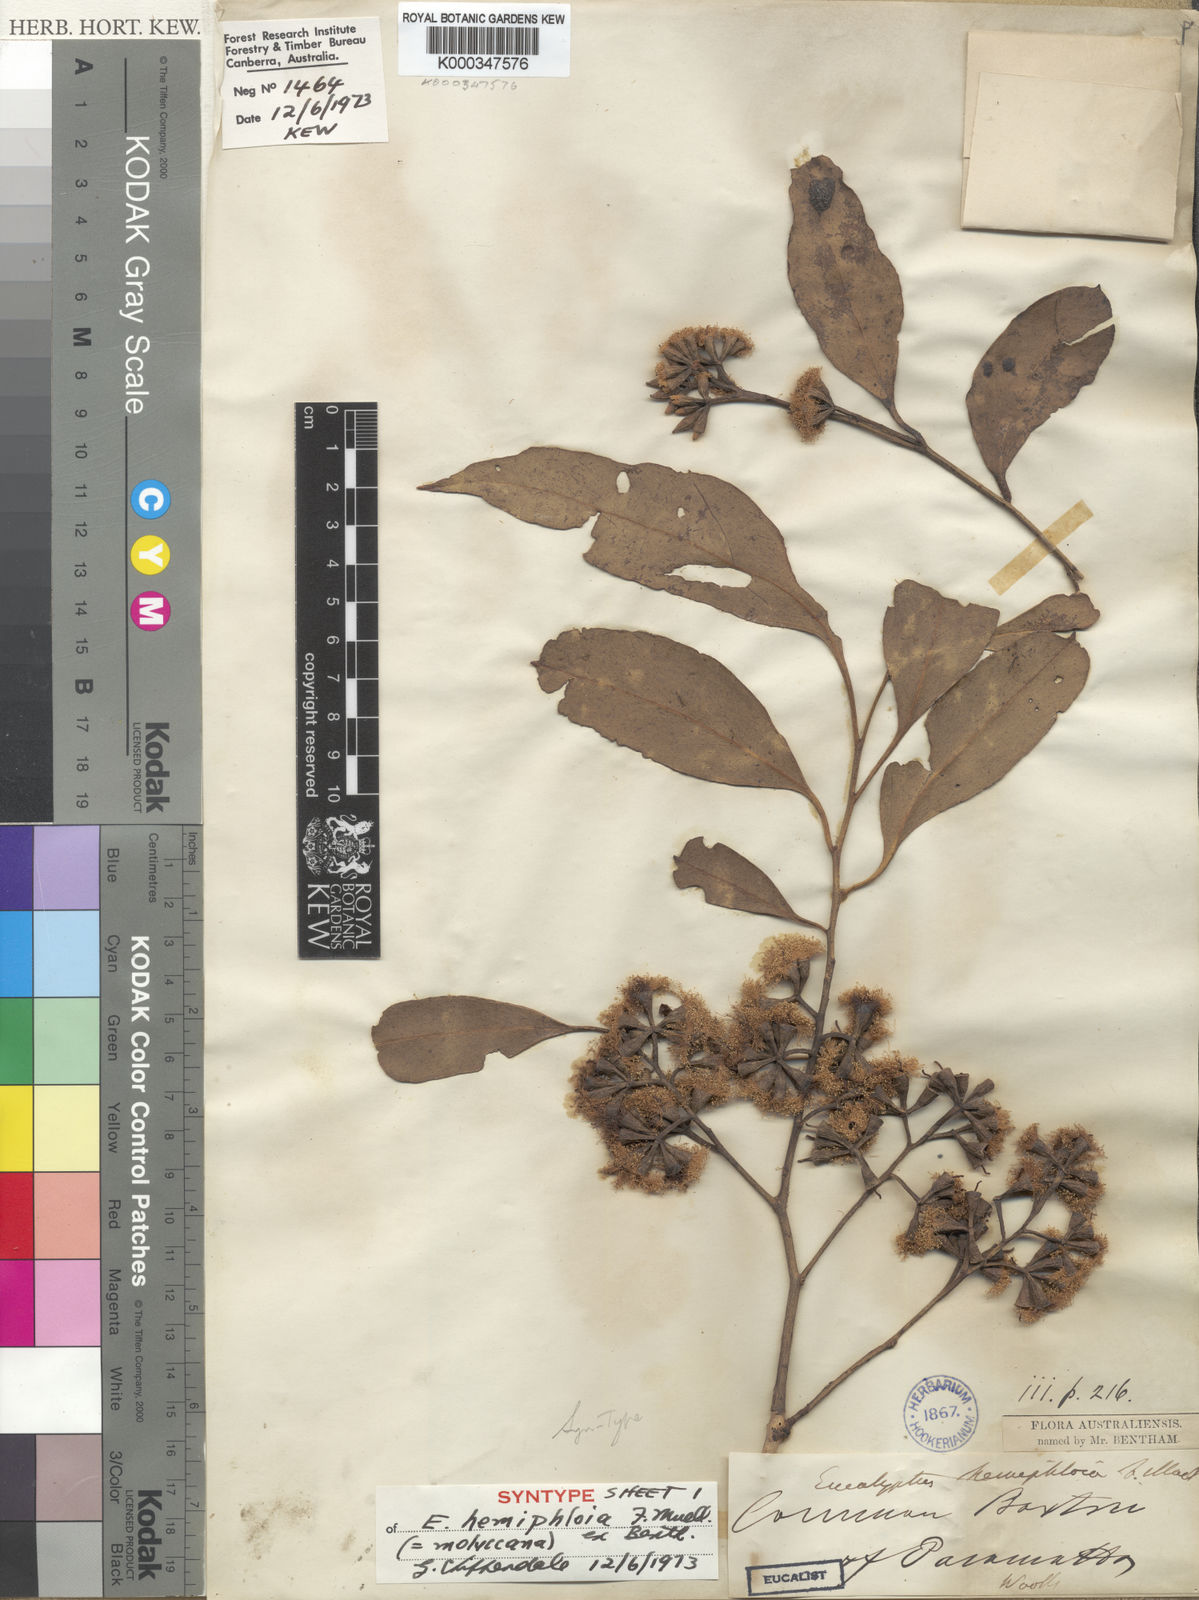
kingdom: Plantae
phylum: Tracheophyta
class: Magnoliopsida
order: Myrtales
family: Myrtaceae
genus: Eucalyptus
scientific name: Eucalyptus moluccana
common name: Grey-box
